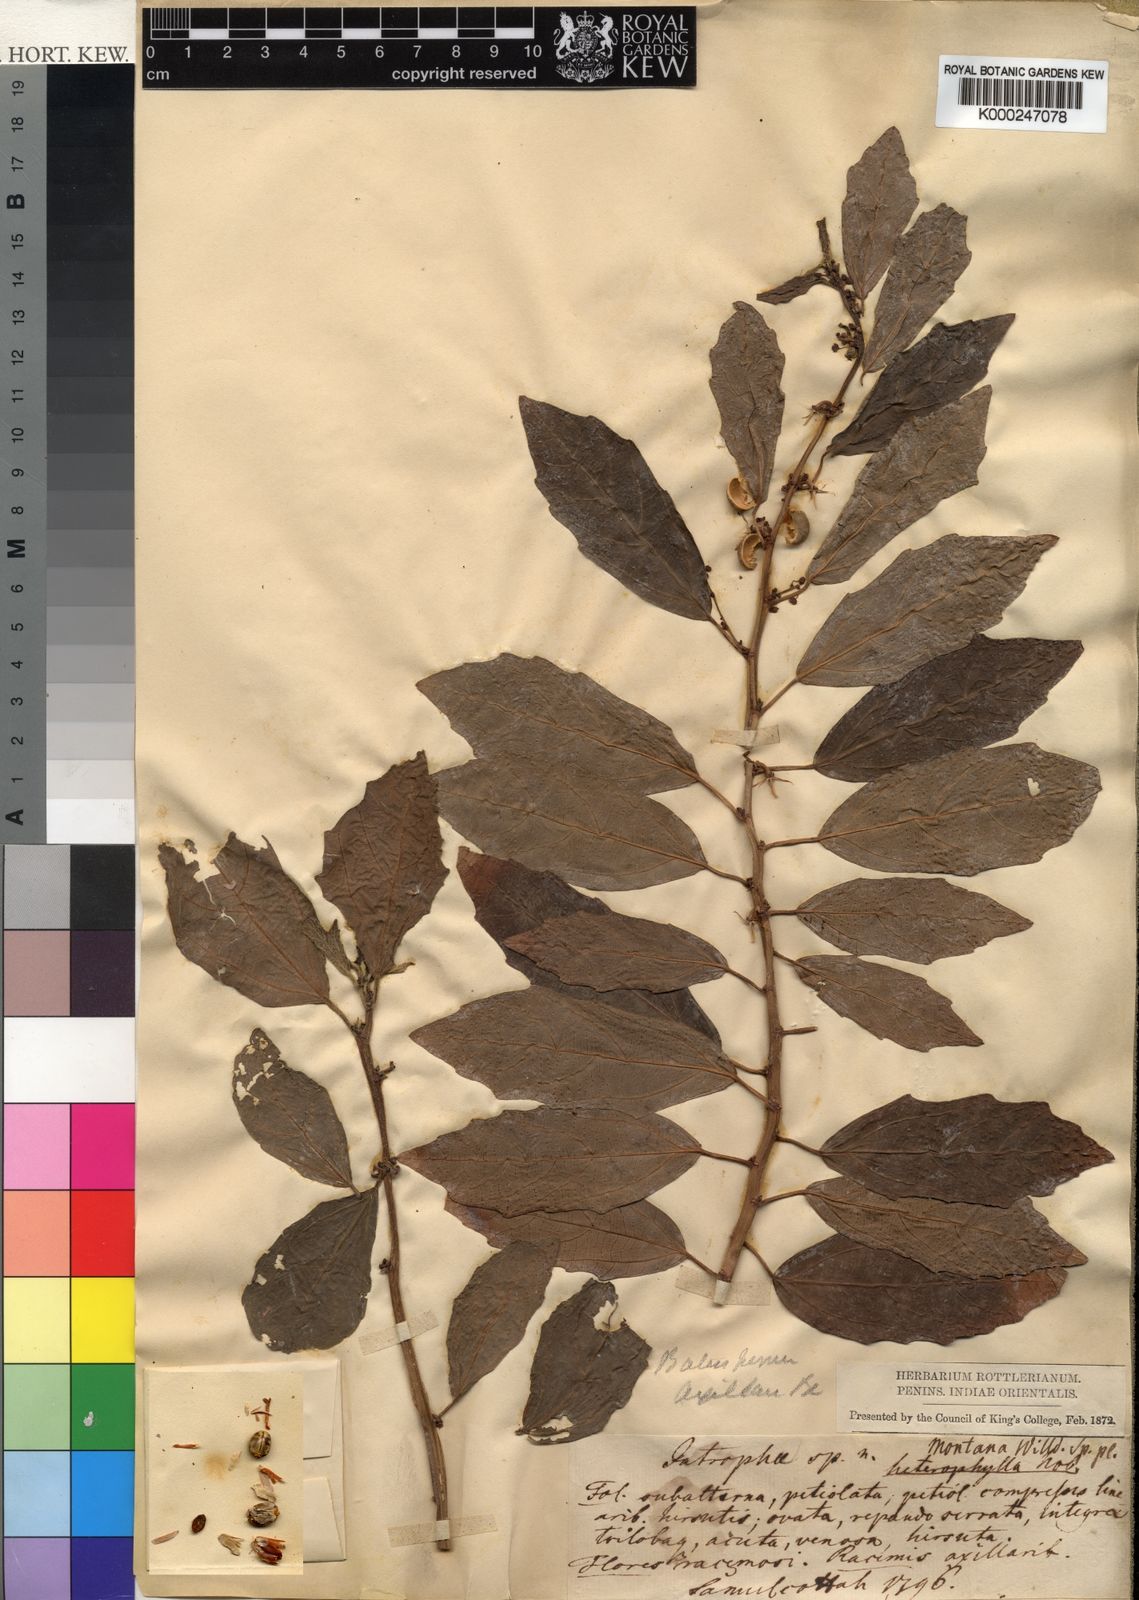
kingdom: Plantae
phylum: Tracheophyta
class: Magnoliopsida
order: Malpighiales
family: Euphorbiaceae
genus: Baliospermum
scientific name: Baliospermum
